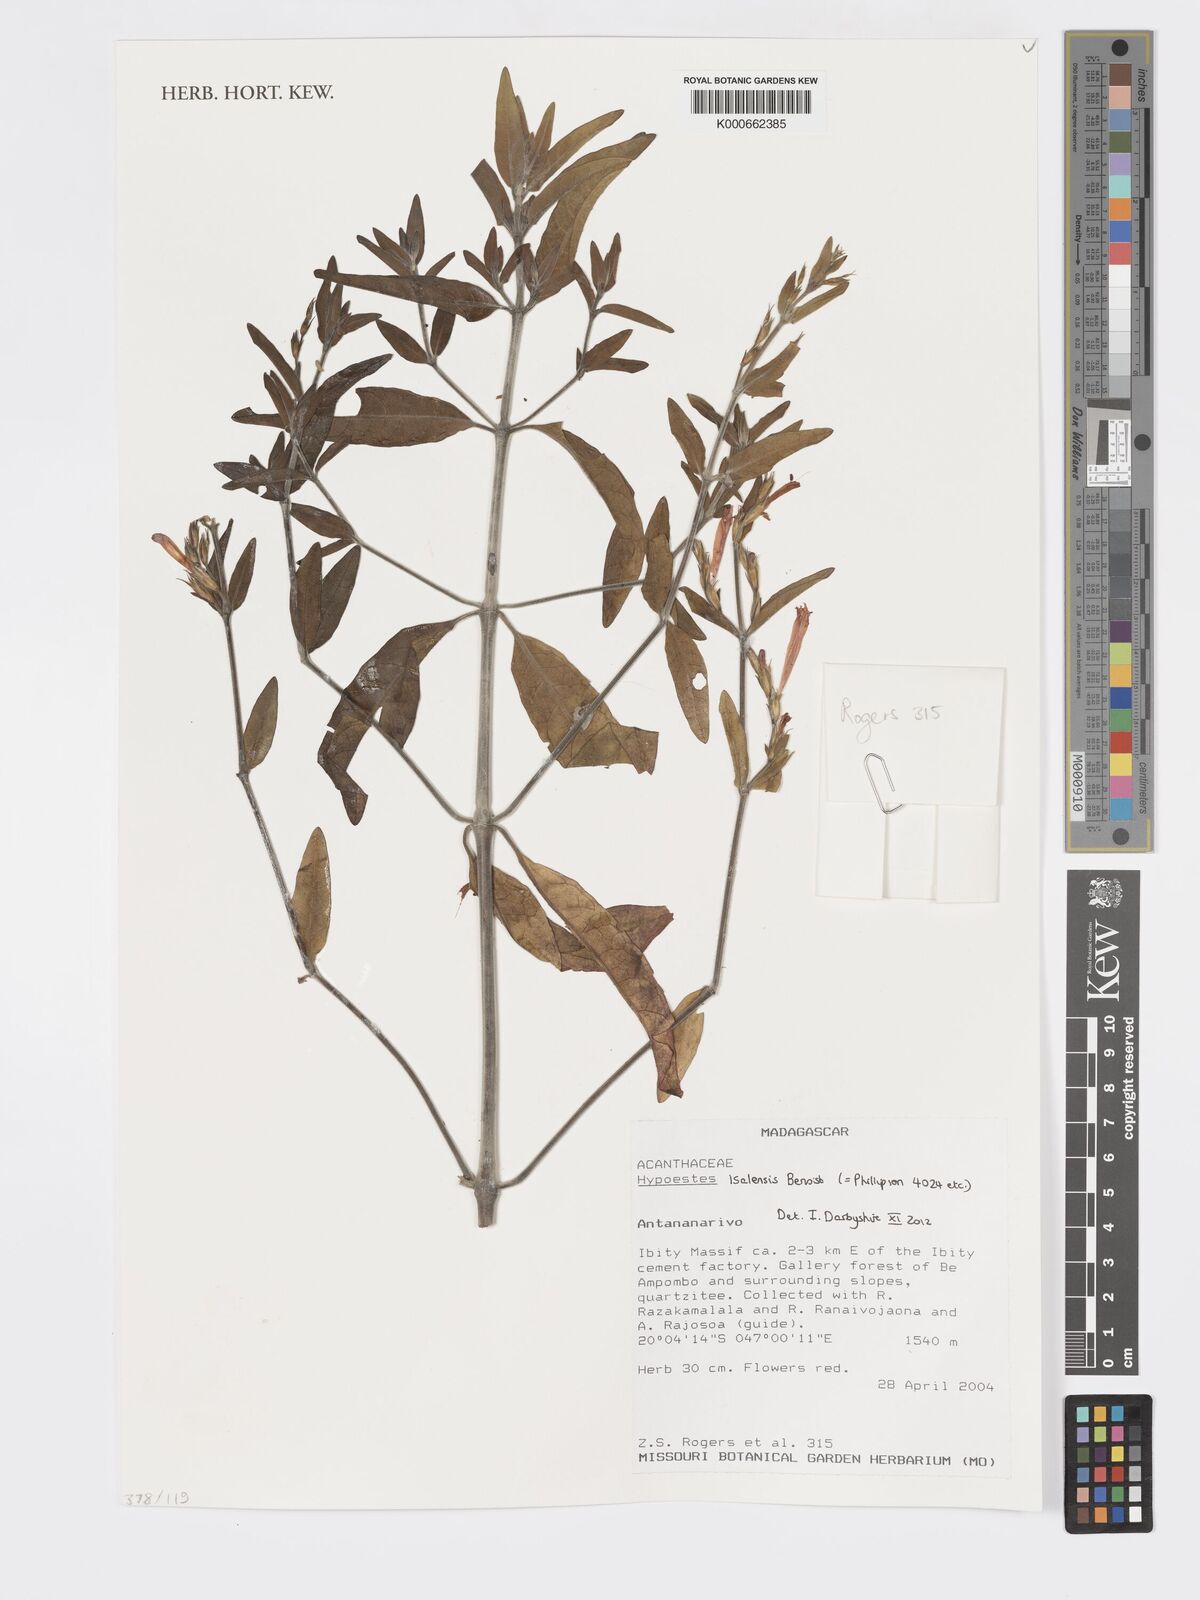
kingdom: Plantae
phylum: Tracheophyta
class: Magnoliopsida
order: Lamiales
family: Acanthaceae
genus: Hypoestes
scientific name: Hypoestes isalensis
